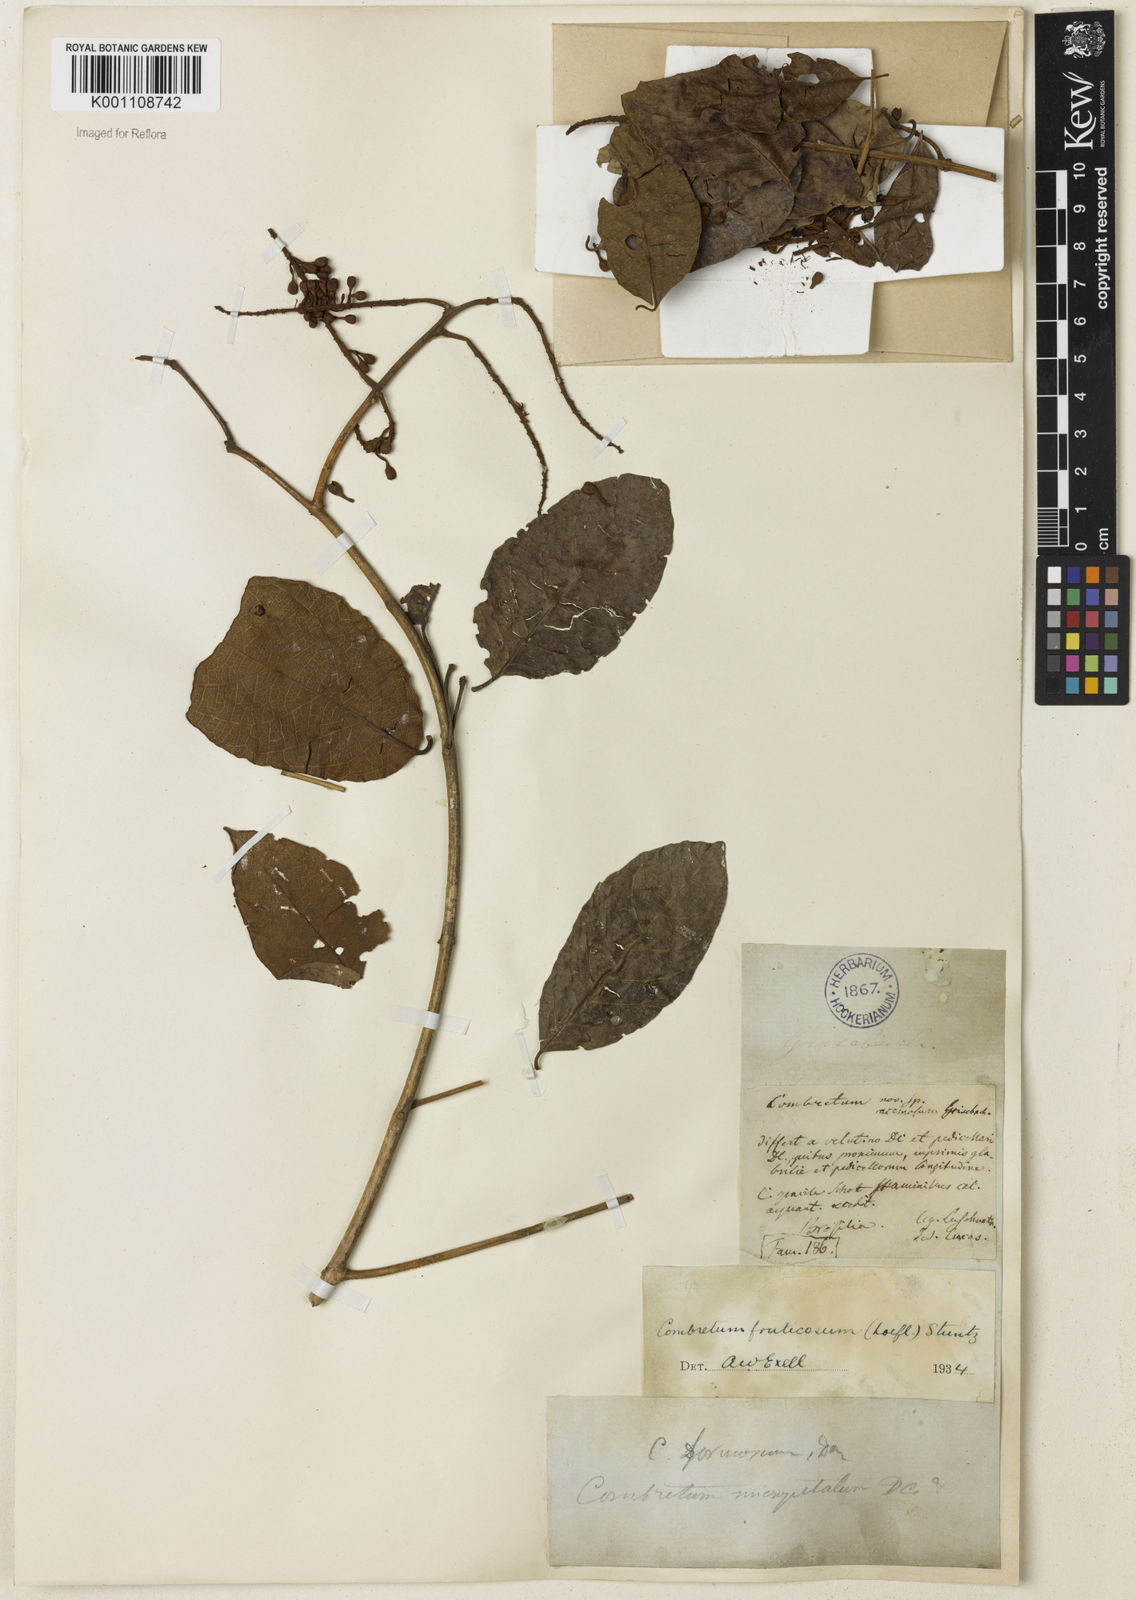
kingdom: Plantae
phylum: Tracheophyta
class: Magnoliopsida
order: Myrtales
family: Combretaceae
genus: Combretum
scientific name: Combretum fruticosum
